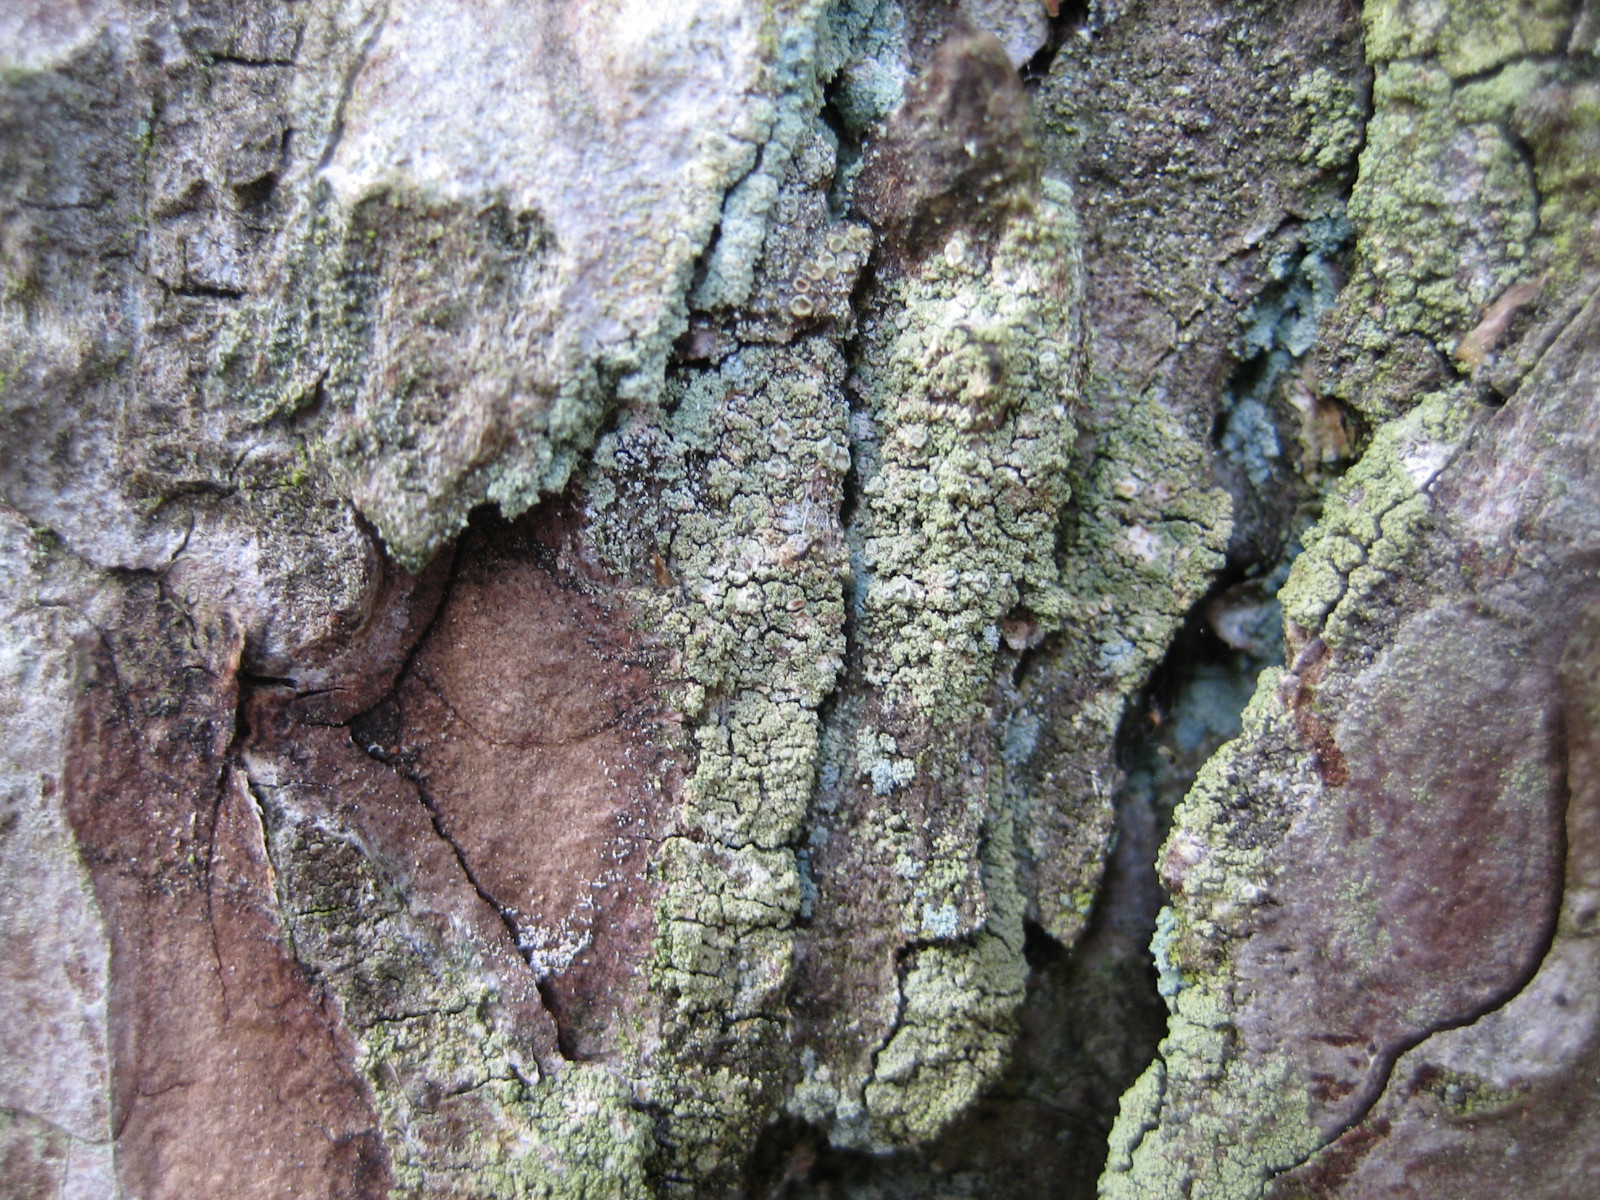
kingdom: Fungi
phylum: Ascomycota
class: Lecanoromycetes
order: Lecanorales
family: Lecanoraceae
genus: Straminella
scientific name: Straminella conizaeoides
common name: by-kantskivelav
